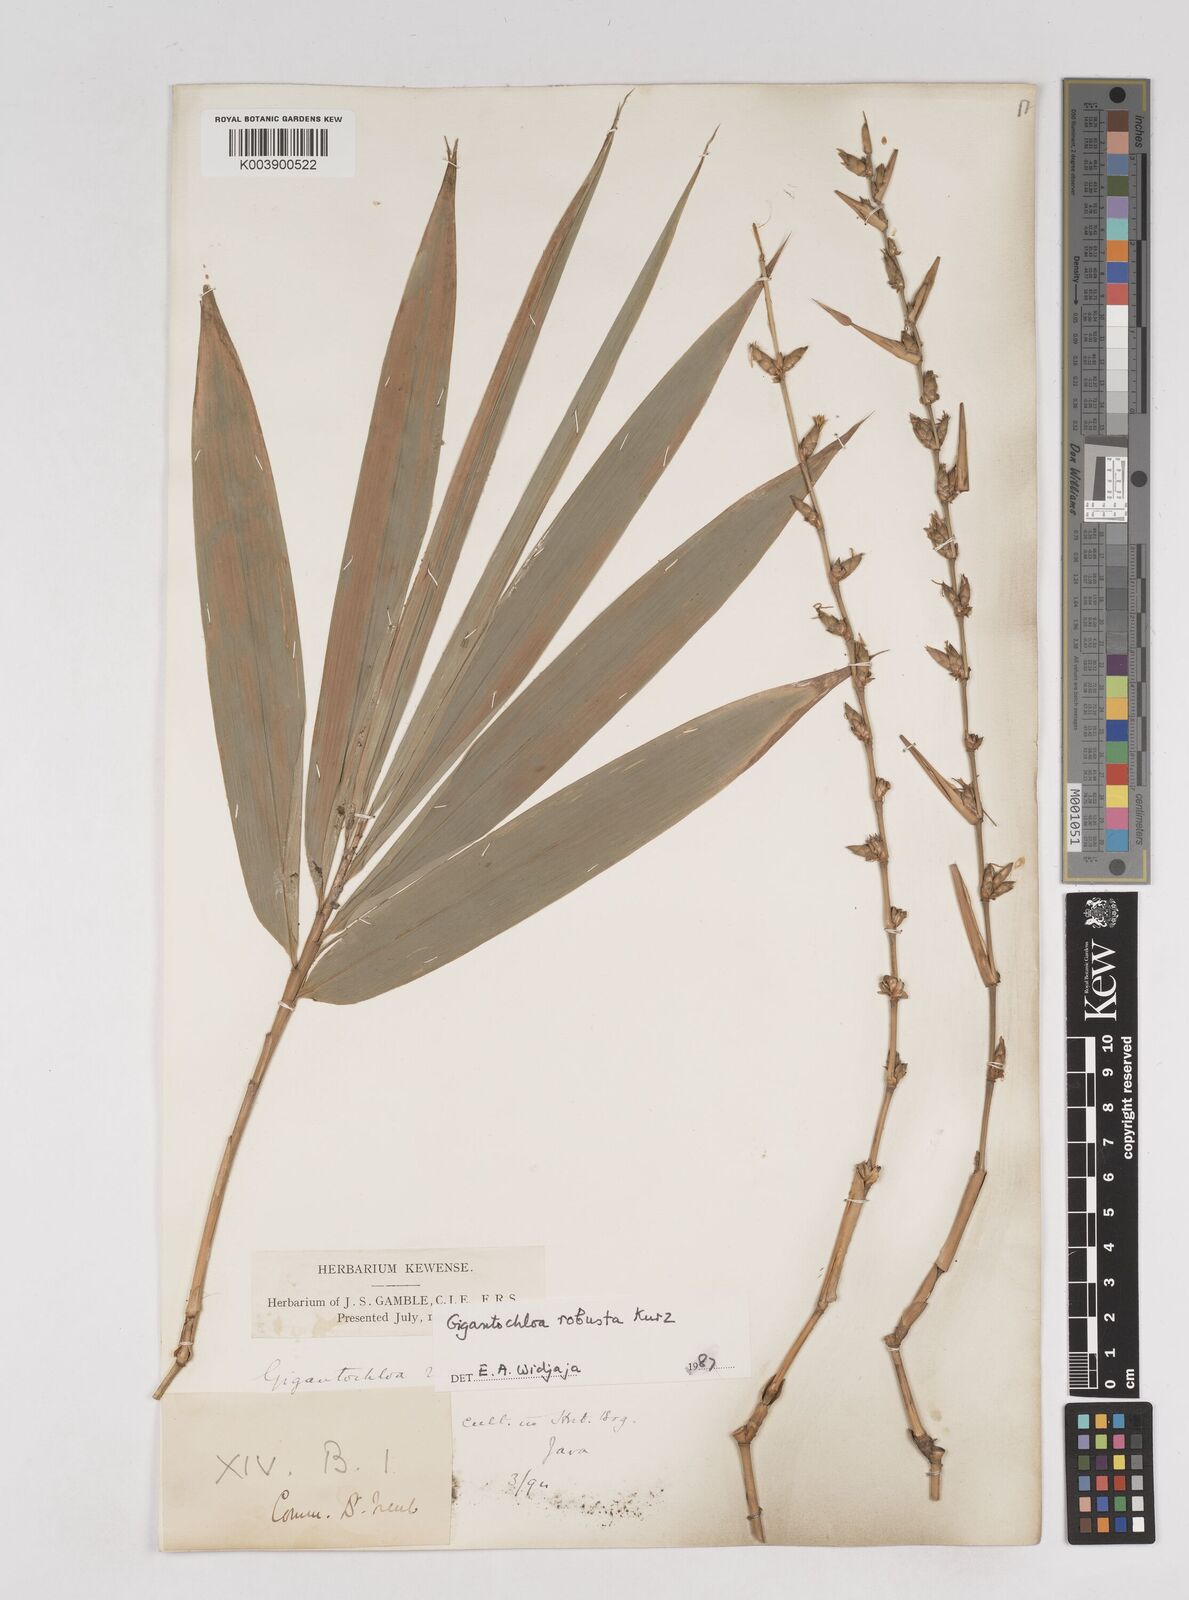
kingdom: Plantae
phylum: Tracheophyta
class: Liliopsida
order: Poales
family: Poaceae
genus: Gigantochloa
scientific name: Gigantochloa robusta
